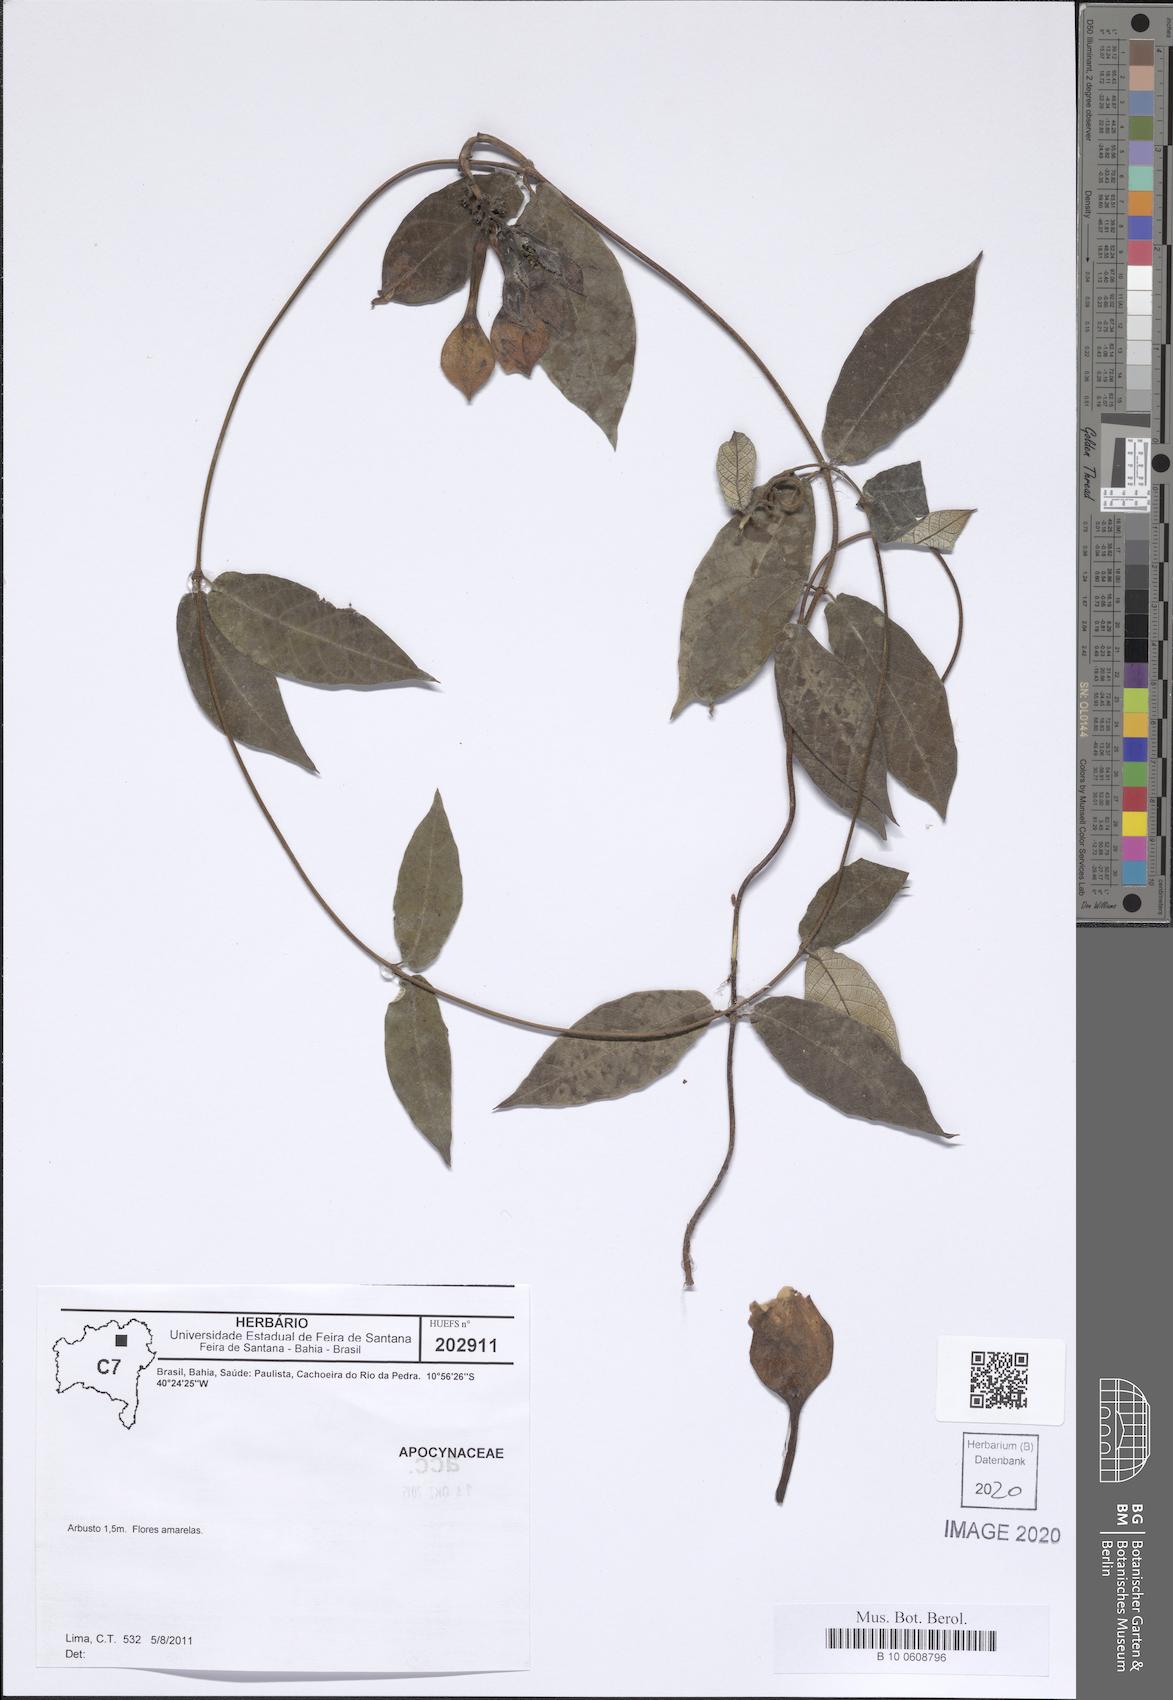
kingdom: Plantae
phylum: Tracheophyta
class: Magnoliopsida
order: Gentianales
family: Apocynaceae
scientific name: Apocynaceae
